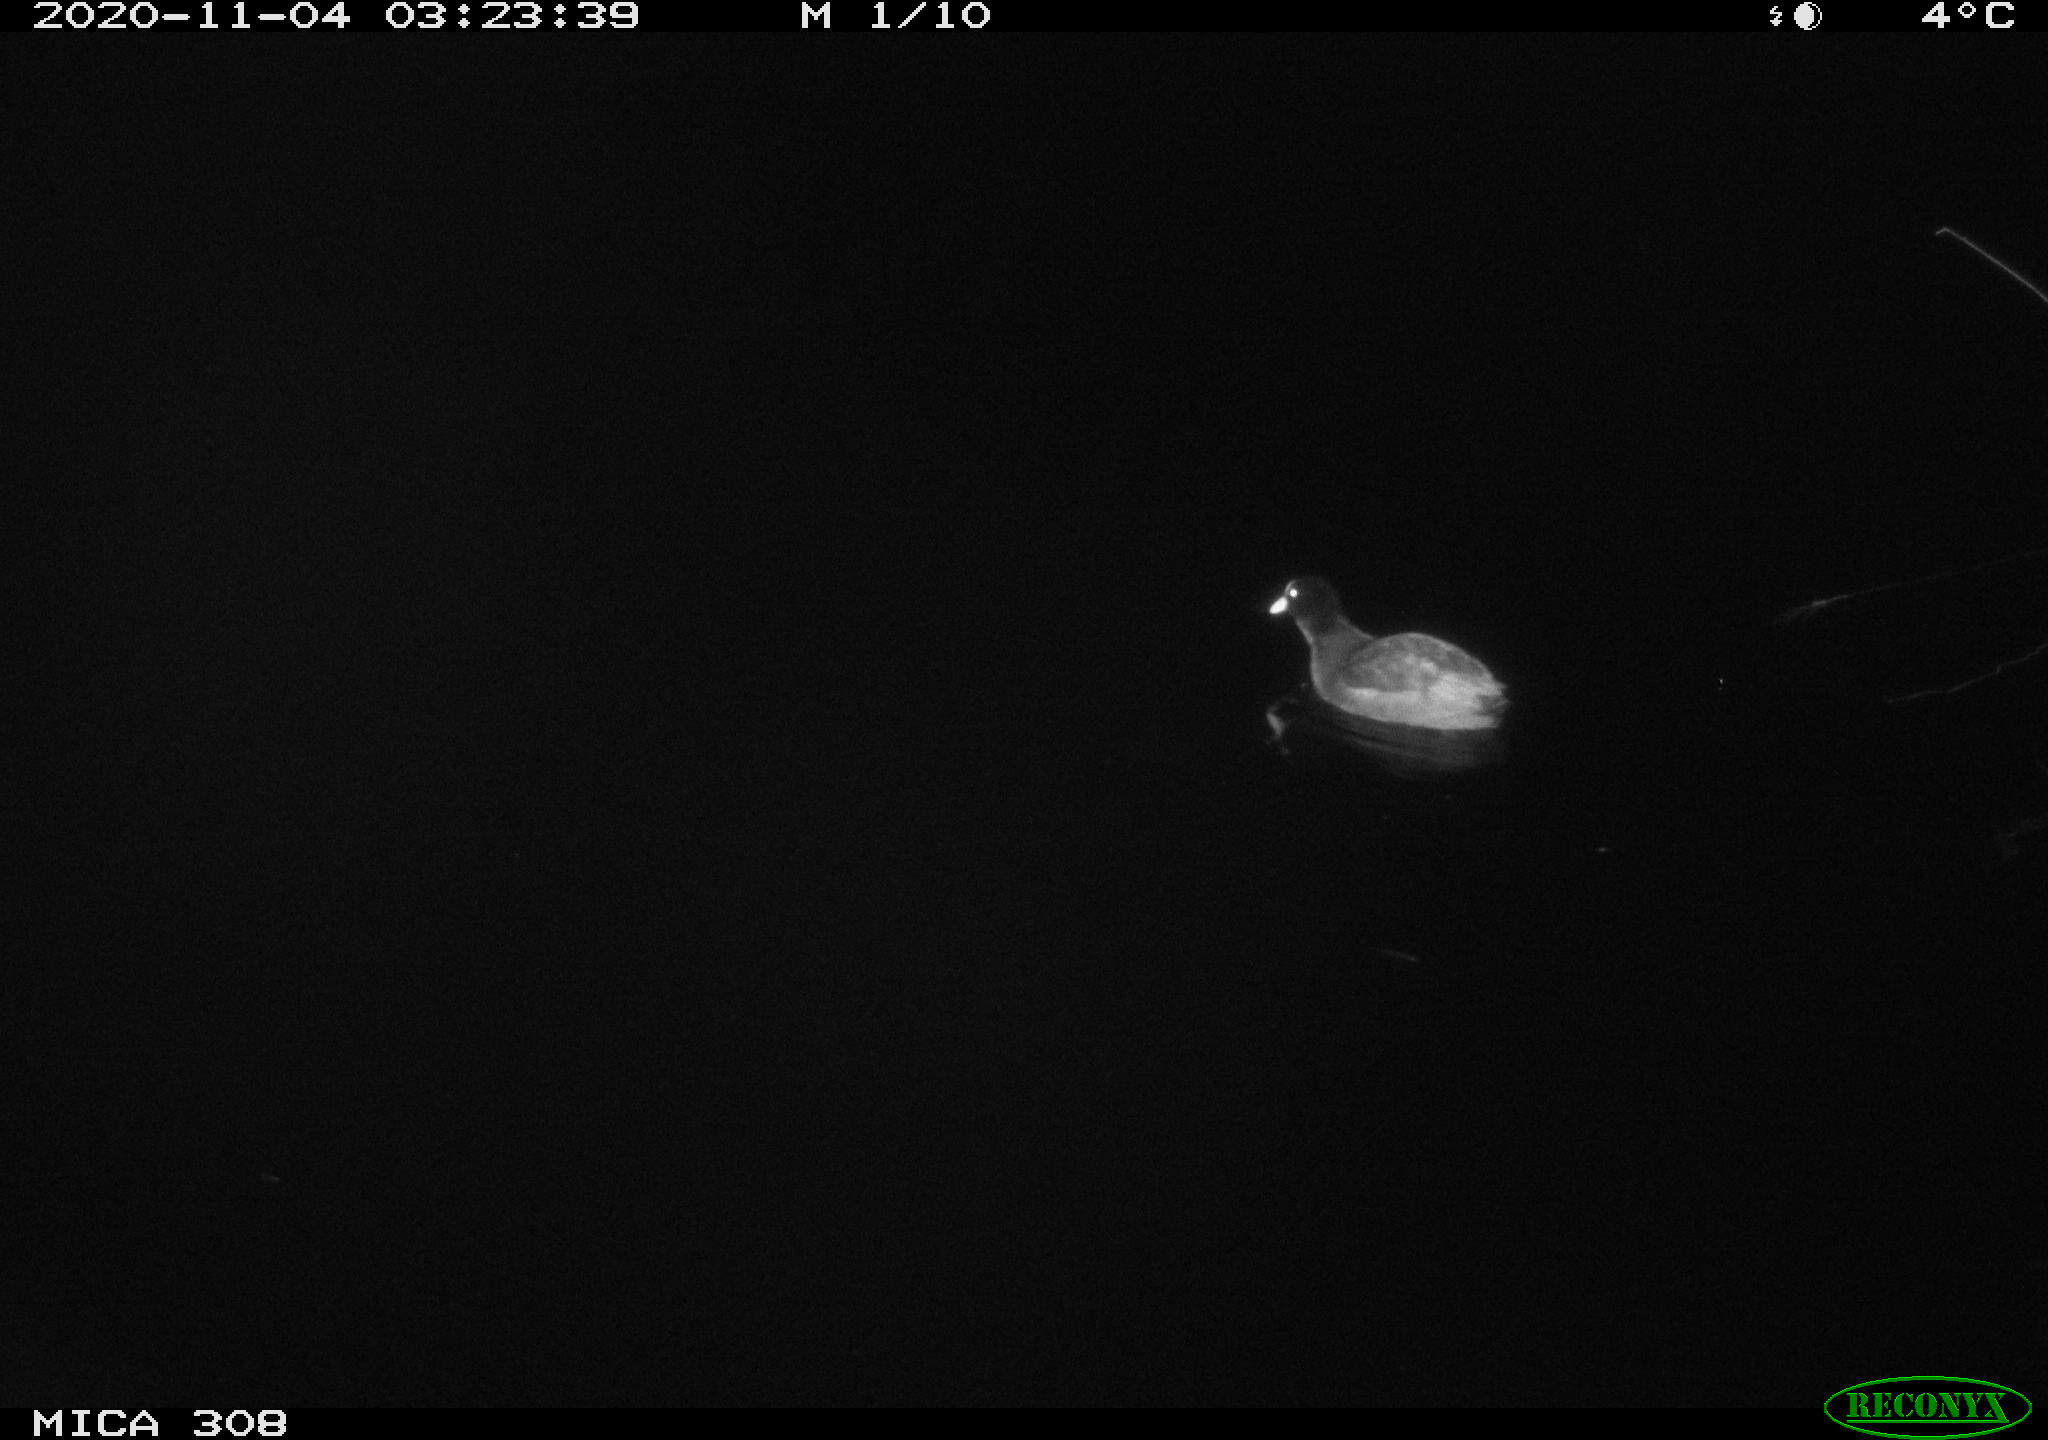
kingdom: Animalia
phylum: Chordata
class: Aves
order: Gruiformes
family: Rallidae
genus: Fulica
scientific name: Fulica atra
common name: Eurasian coot
